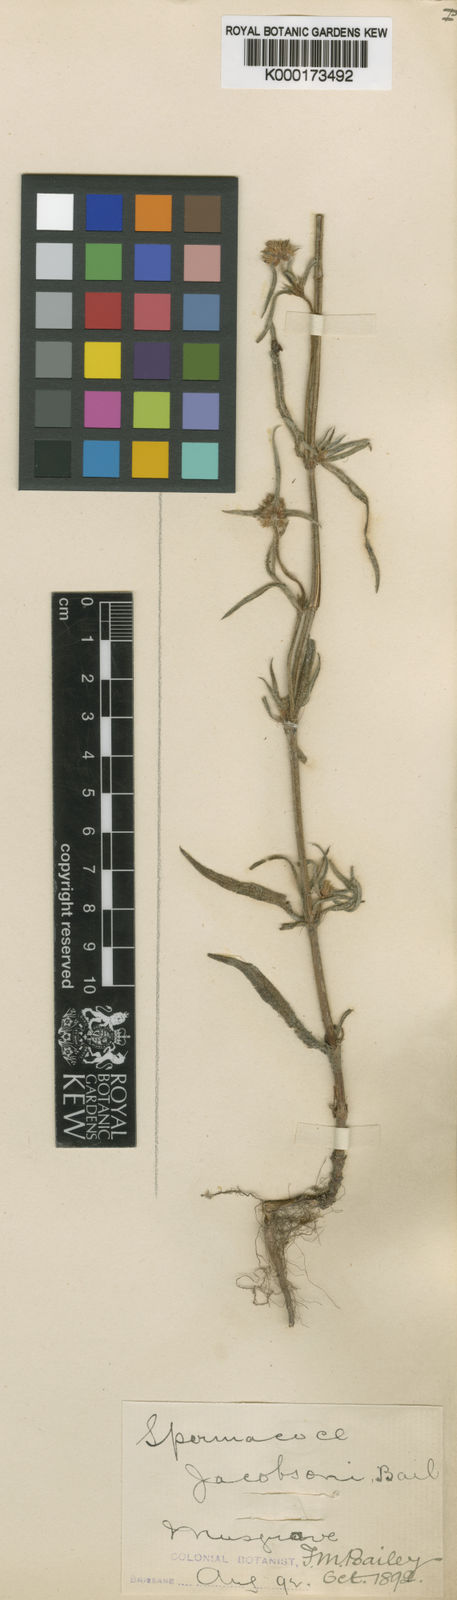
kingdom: Plantae
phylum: Tracheophyta
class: Magnoliopsida
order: Gentianales
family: Rubiaceae
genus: Spermacoce
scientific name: Spermacoce jacobsonii
